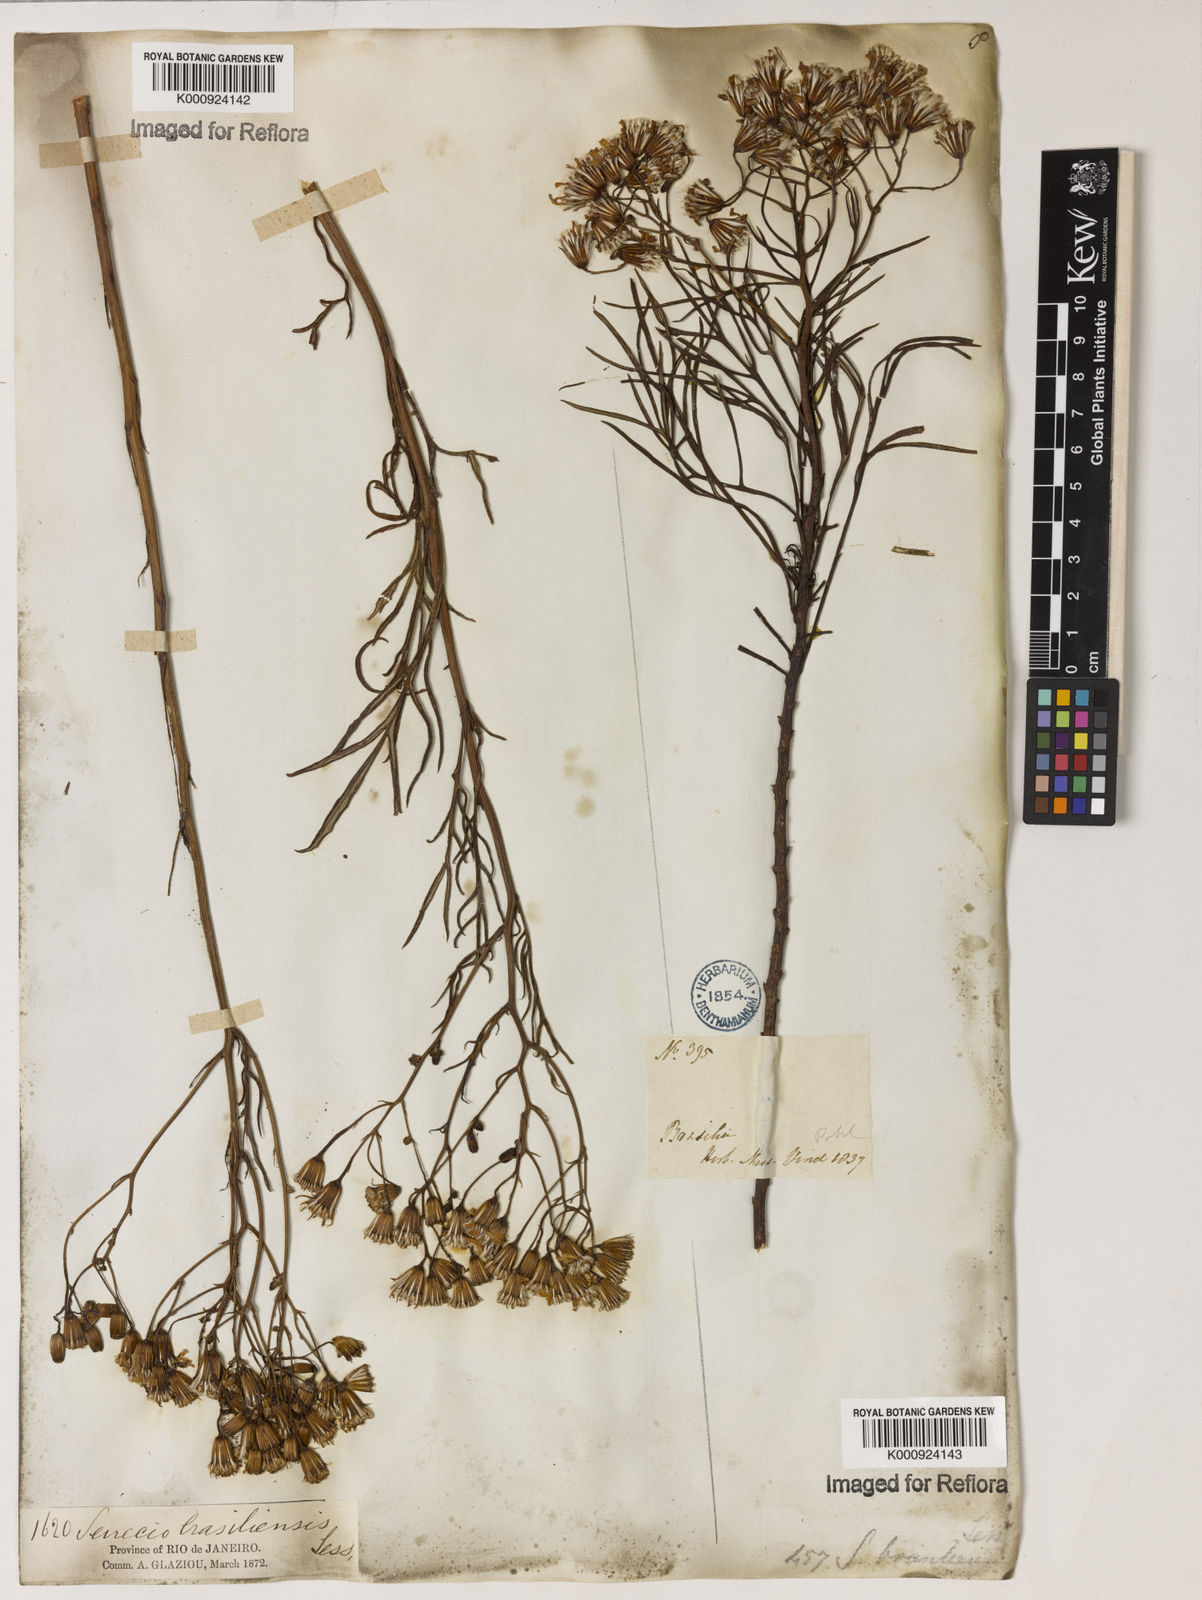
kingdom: Plantae
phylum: Tracheophyta
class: Magnoliopsida
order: Asterales
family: Asteraceae
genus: Senecio
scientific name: Senecio brasiliensis
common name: Hemp-leaf ragwort
